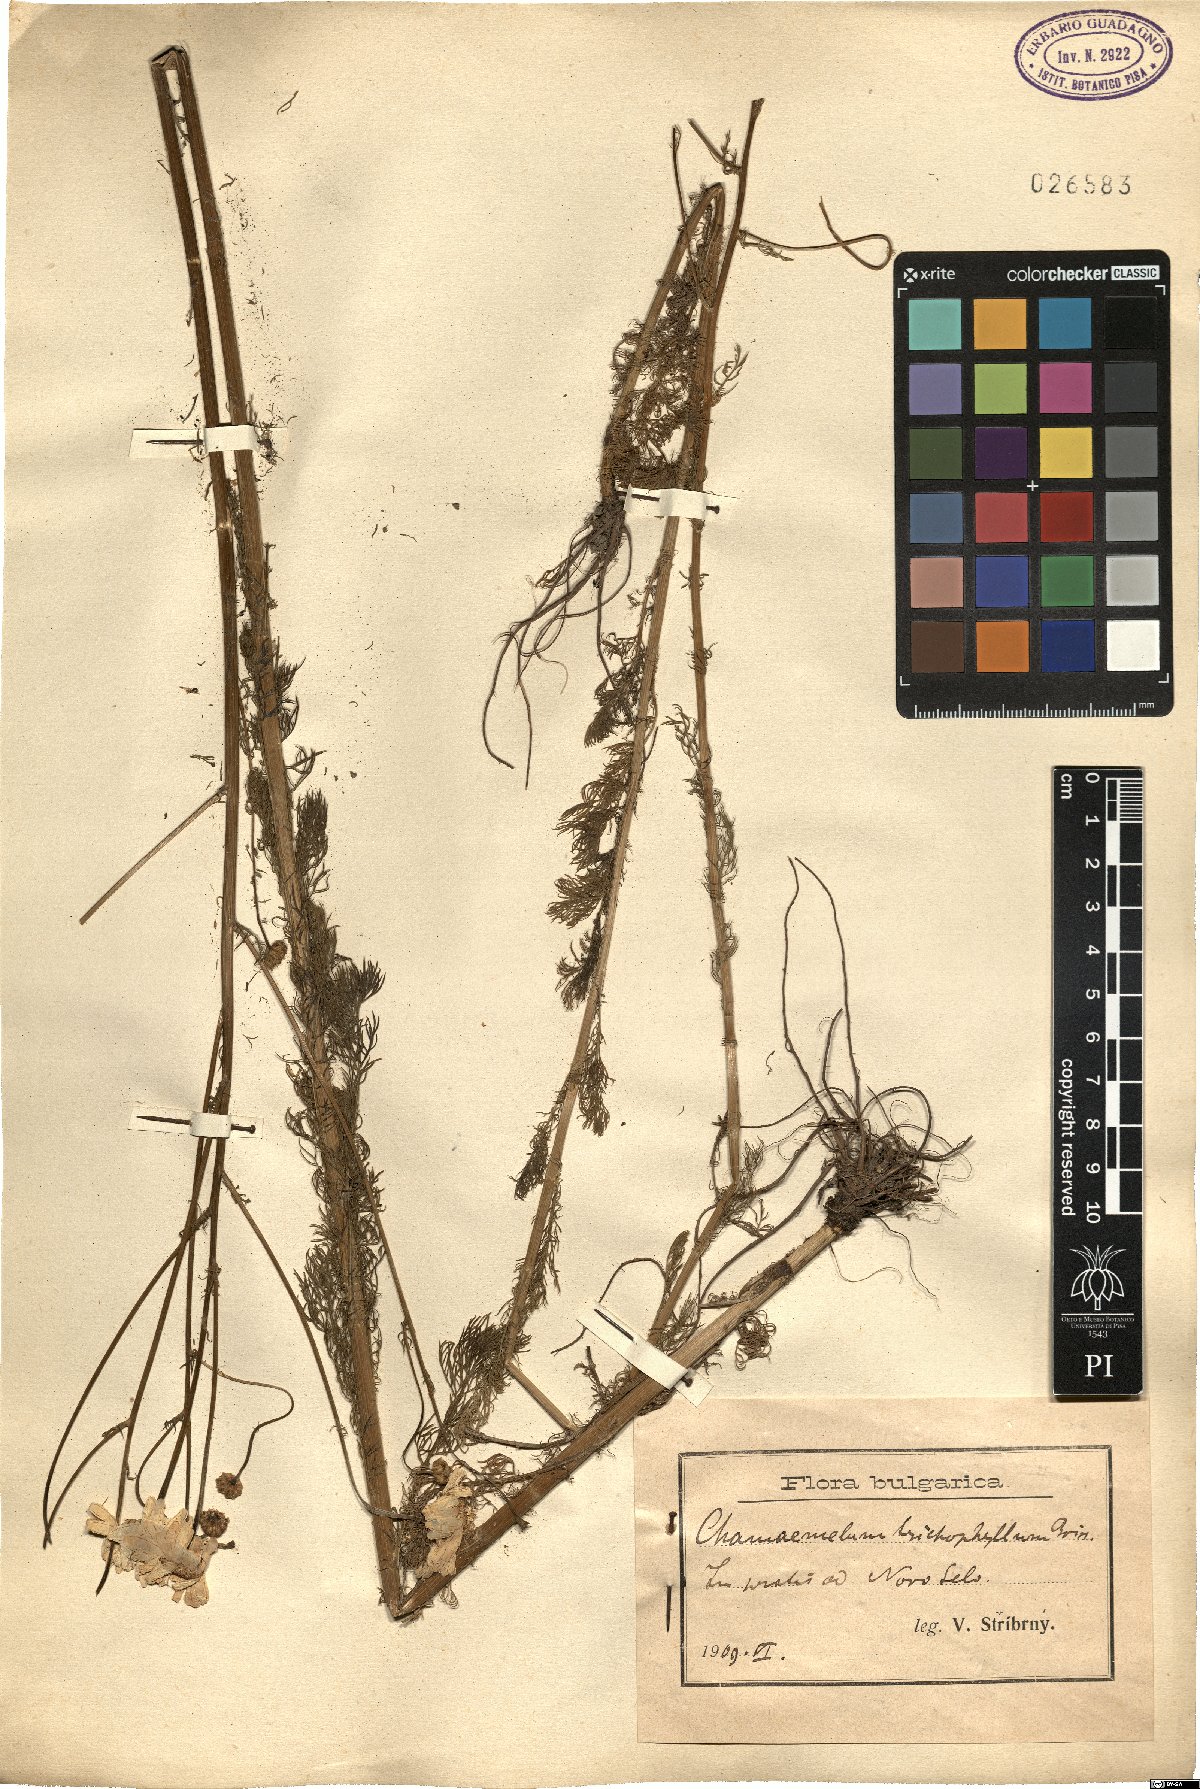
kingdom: Plantae
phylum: Tracheophyta
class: Magnoliopsida
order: Asterales
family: Asteraceae
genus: Tripleurospermum
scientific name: Tripleurospermum tenuifolium
